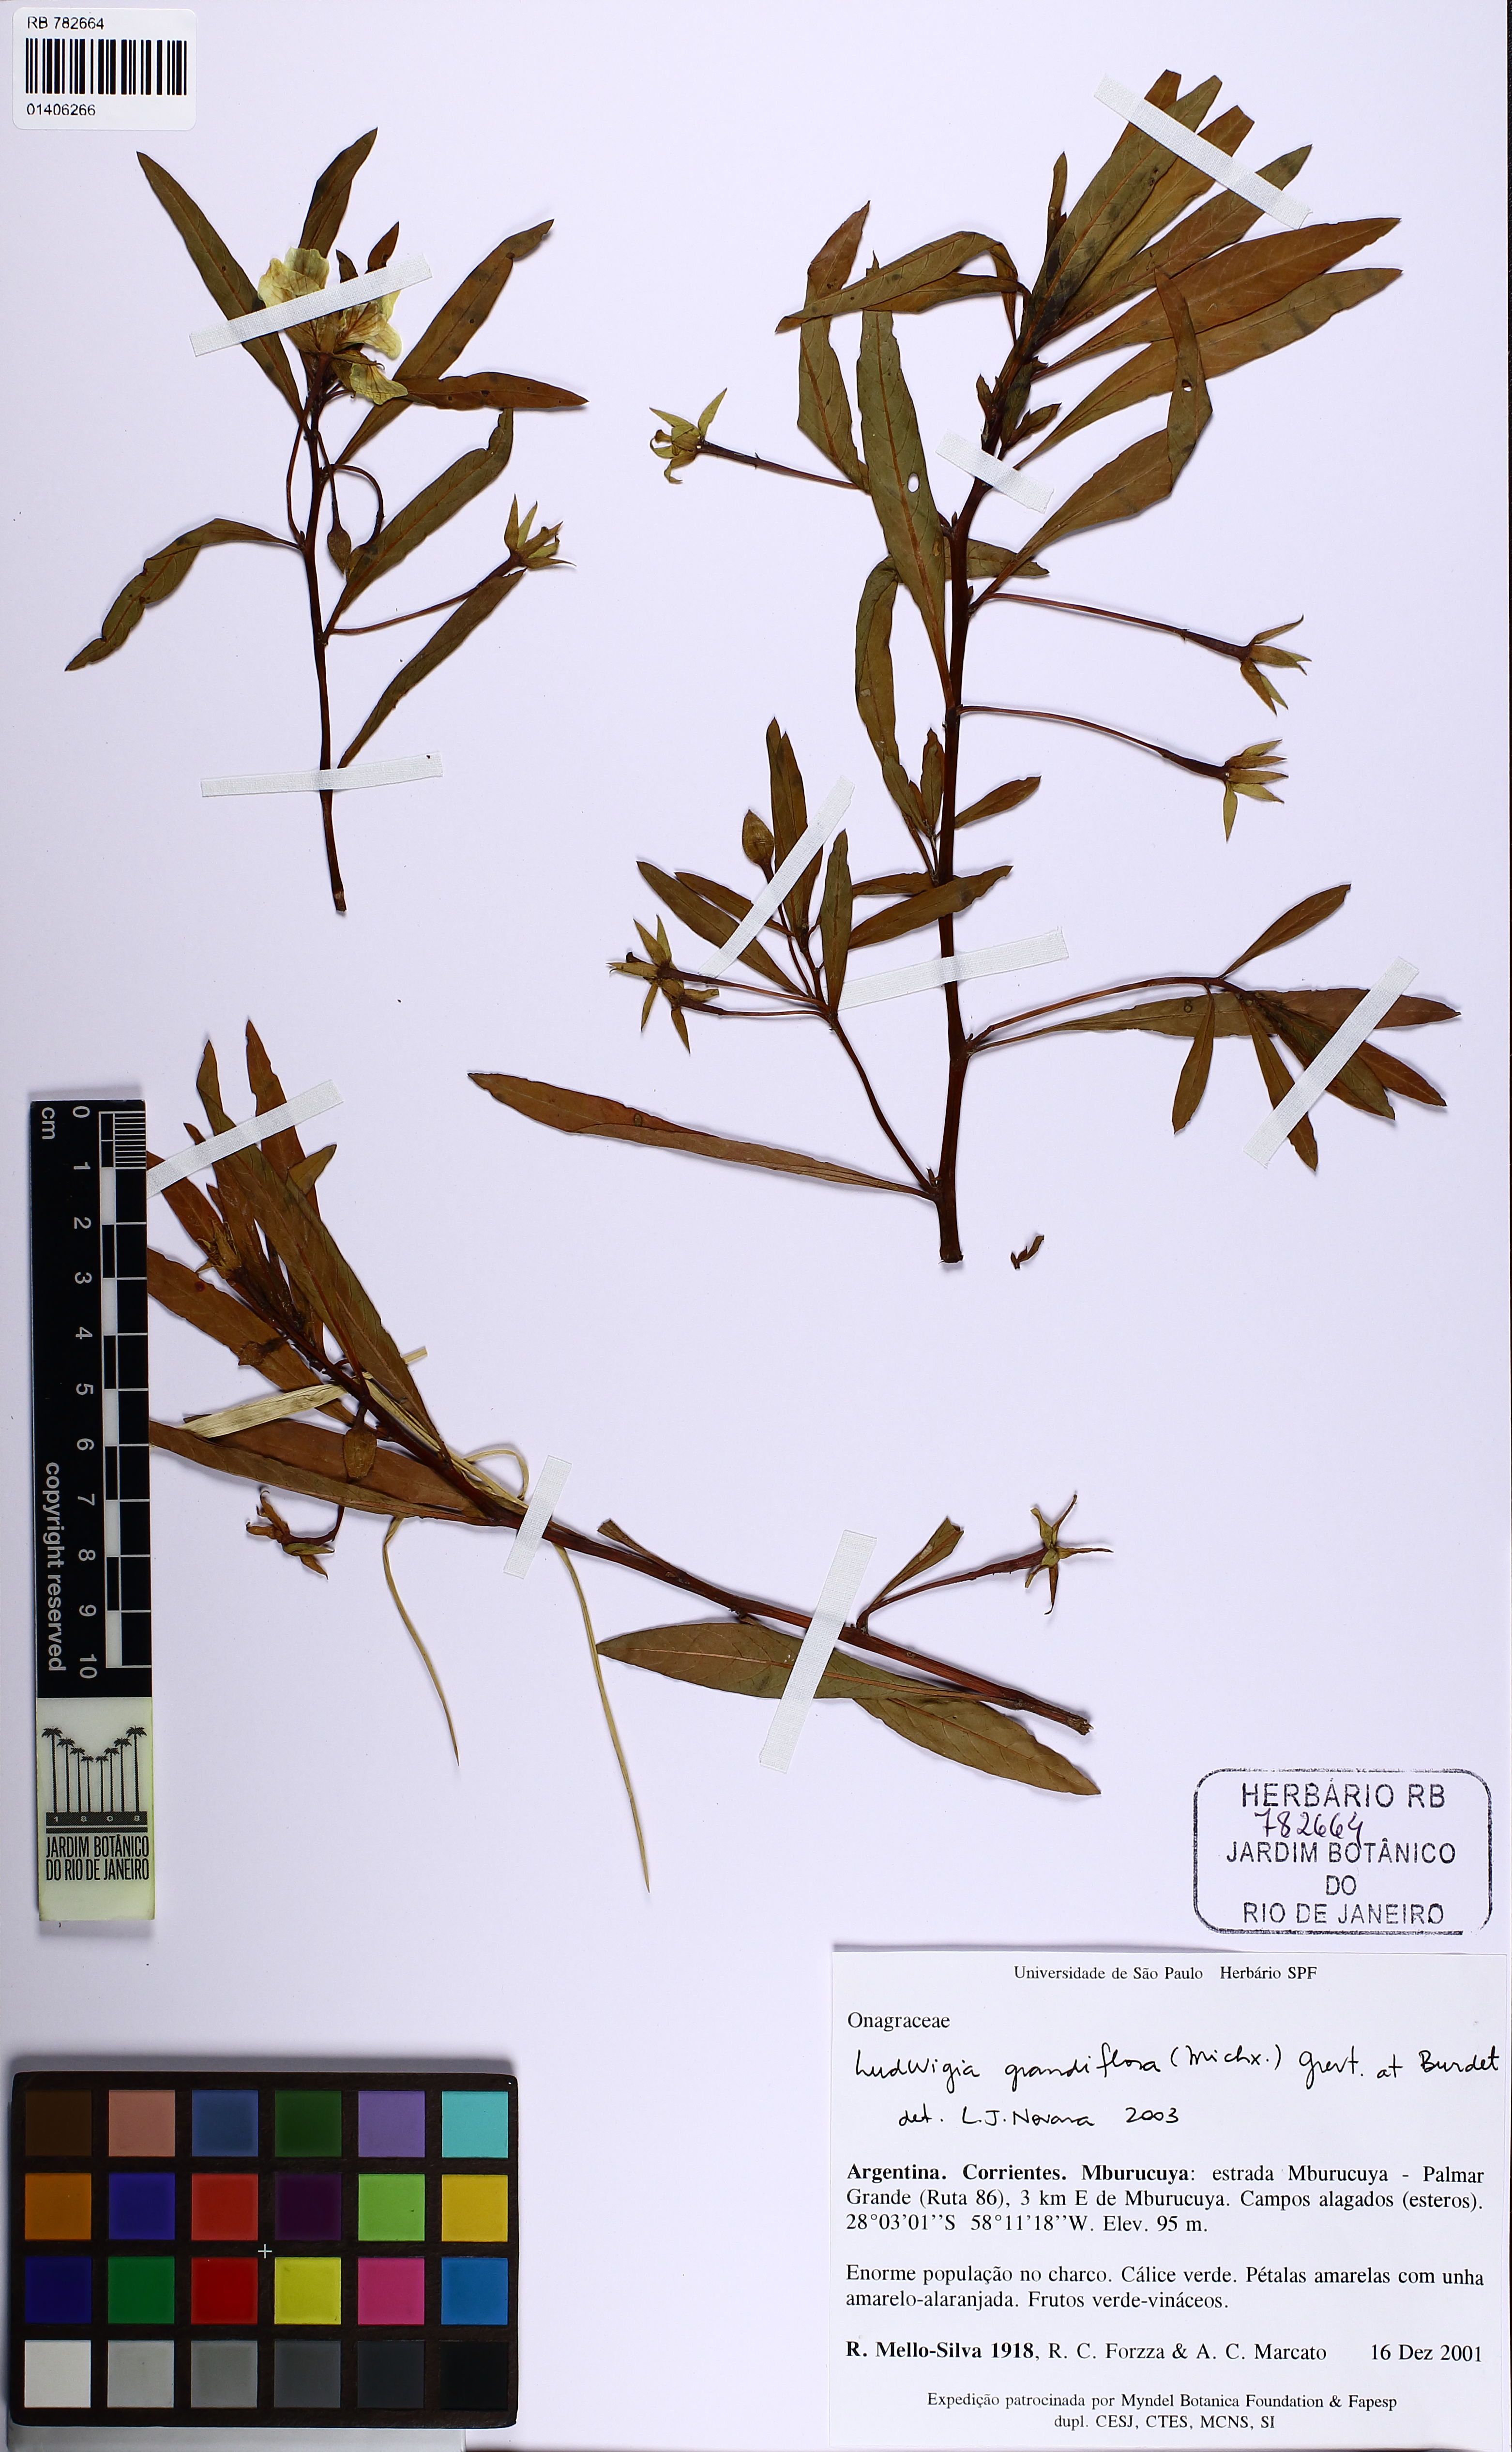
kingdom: Plantae
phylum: Tracheophyta
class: Magnoliopsida
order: Myrtales
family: Onagraceae
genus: Ludwigia
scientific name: Ludwigia grandiflora
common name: Water primrose
